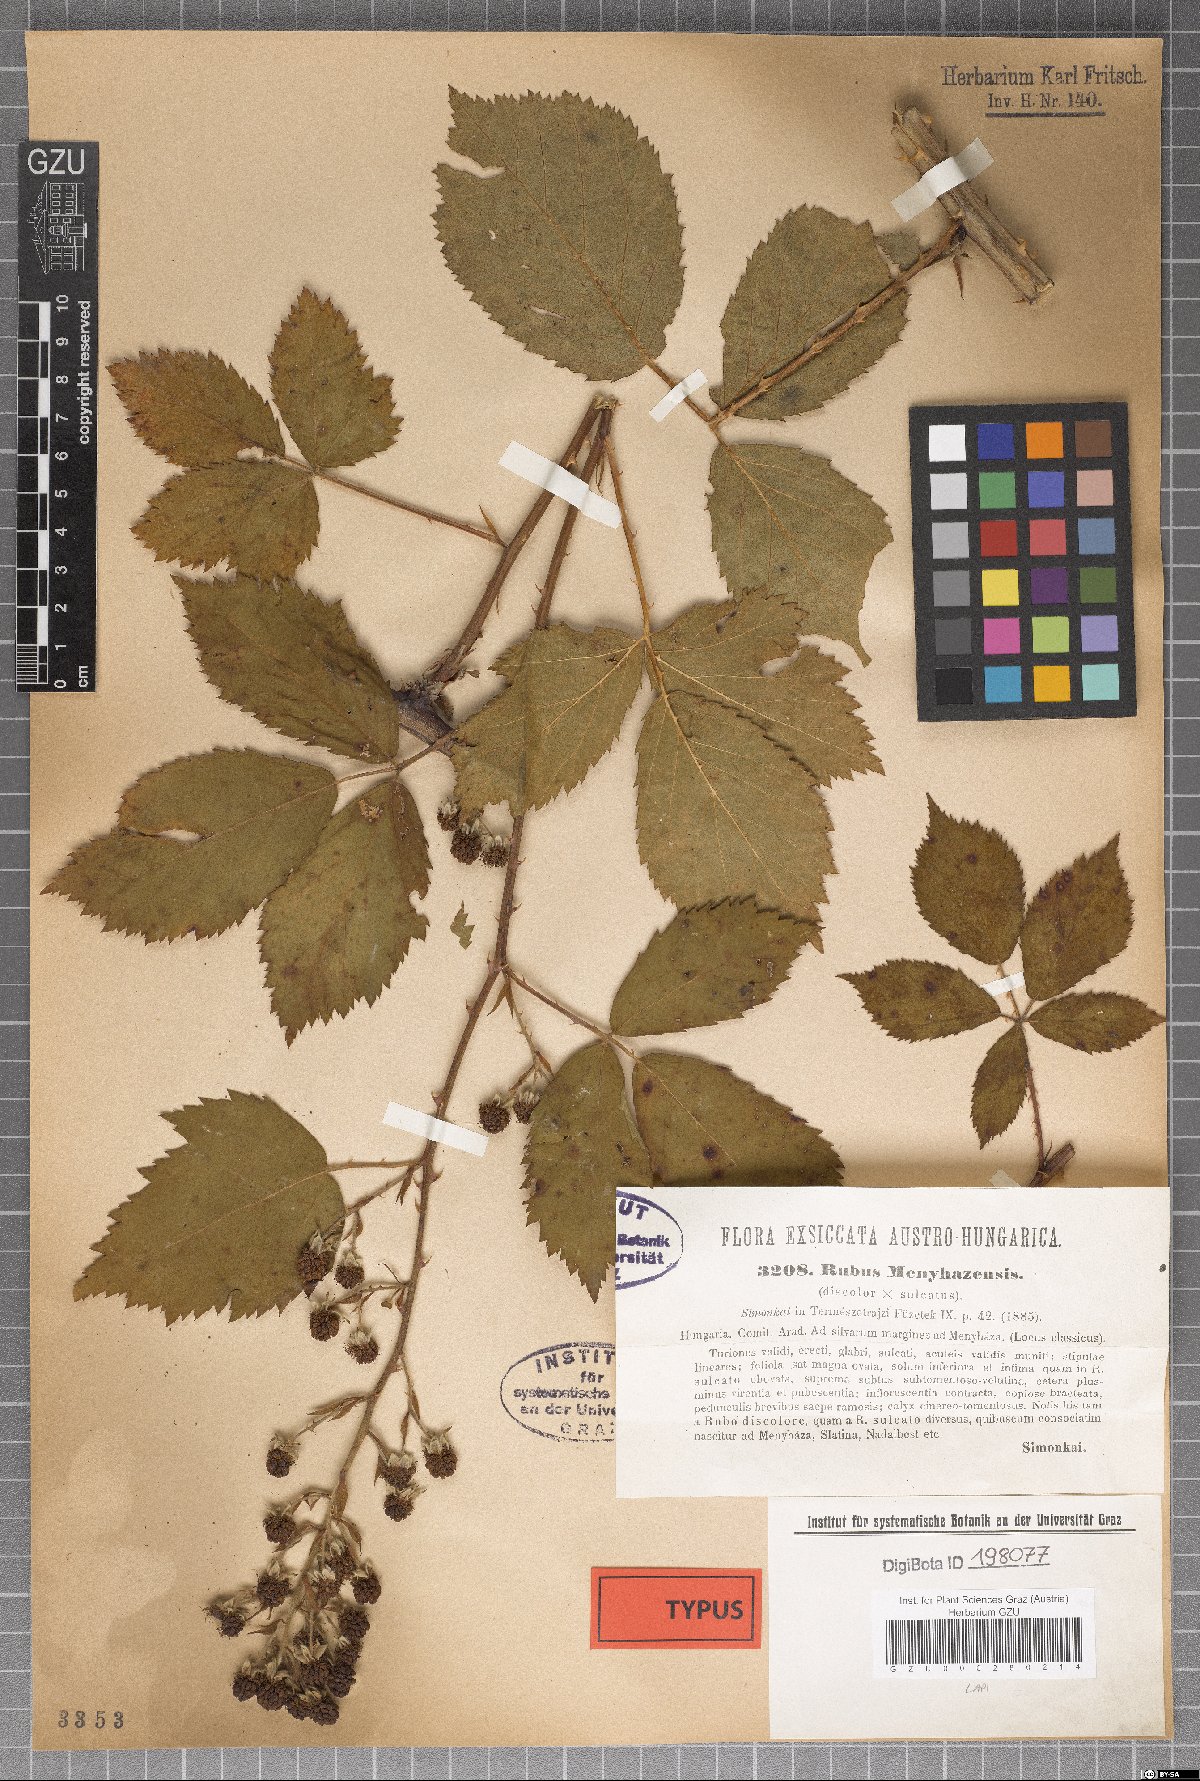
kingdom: Plantae
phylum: Tracheophyta
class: Magnoliopsida
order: Rosales
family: Rosaceae
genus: Rubus
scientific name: Rubus constrictus
